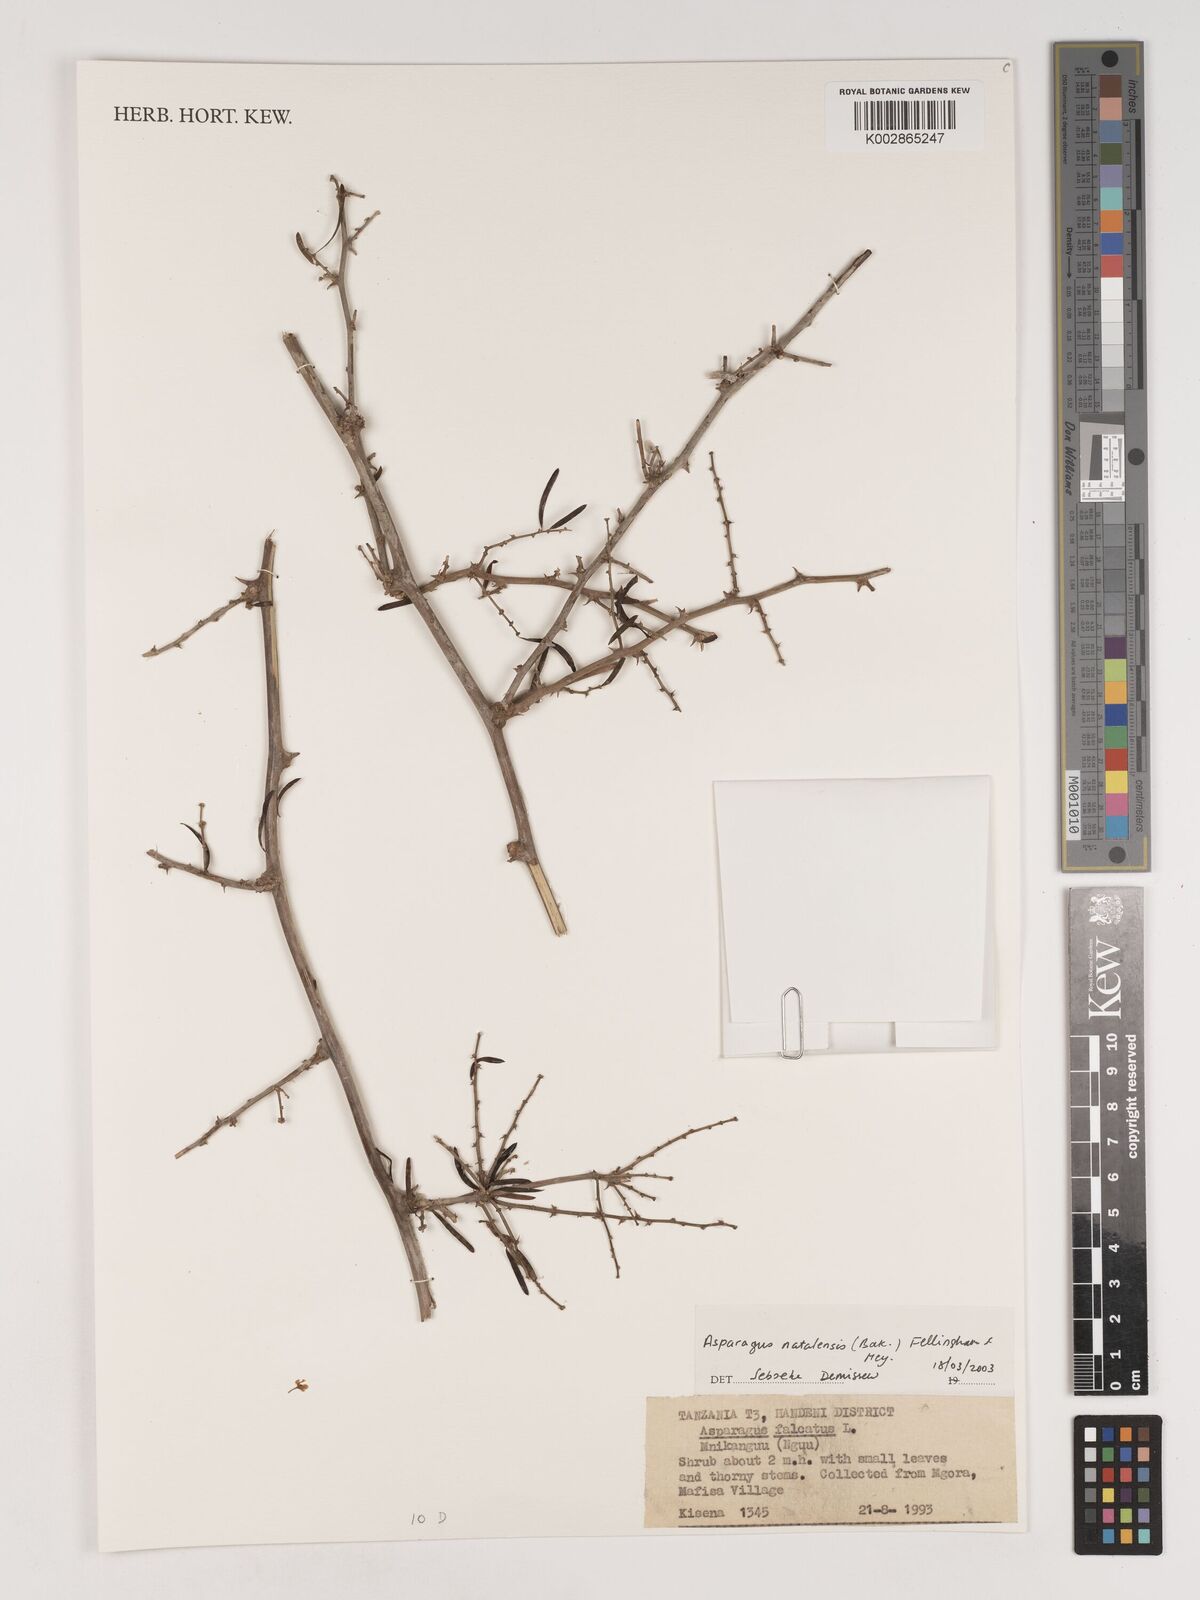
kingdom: Plantae
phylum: Tracheophyta
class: Liliopsida
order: Asparagales
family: Asparagaceae
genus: Asparagus
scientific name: Asparagus natalensis
